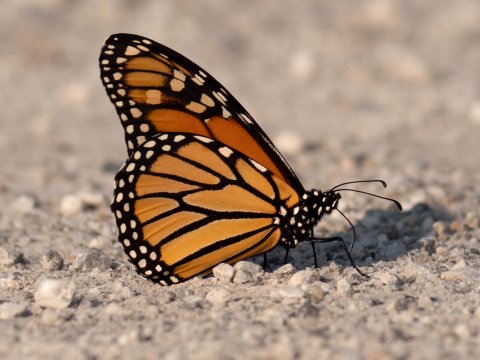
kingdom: Animalia
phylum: Arthropoda
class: Insecta
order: Lepidoptera
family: Nymphalidae
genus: Danaus
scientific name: Danaus plexippus
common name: Monarch
